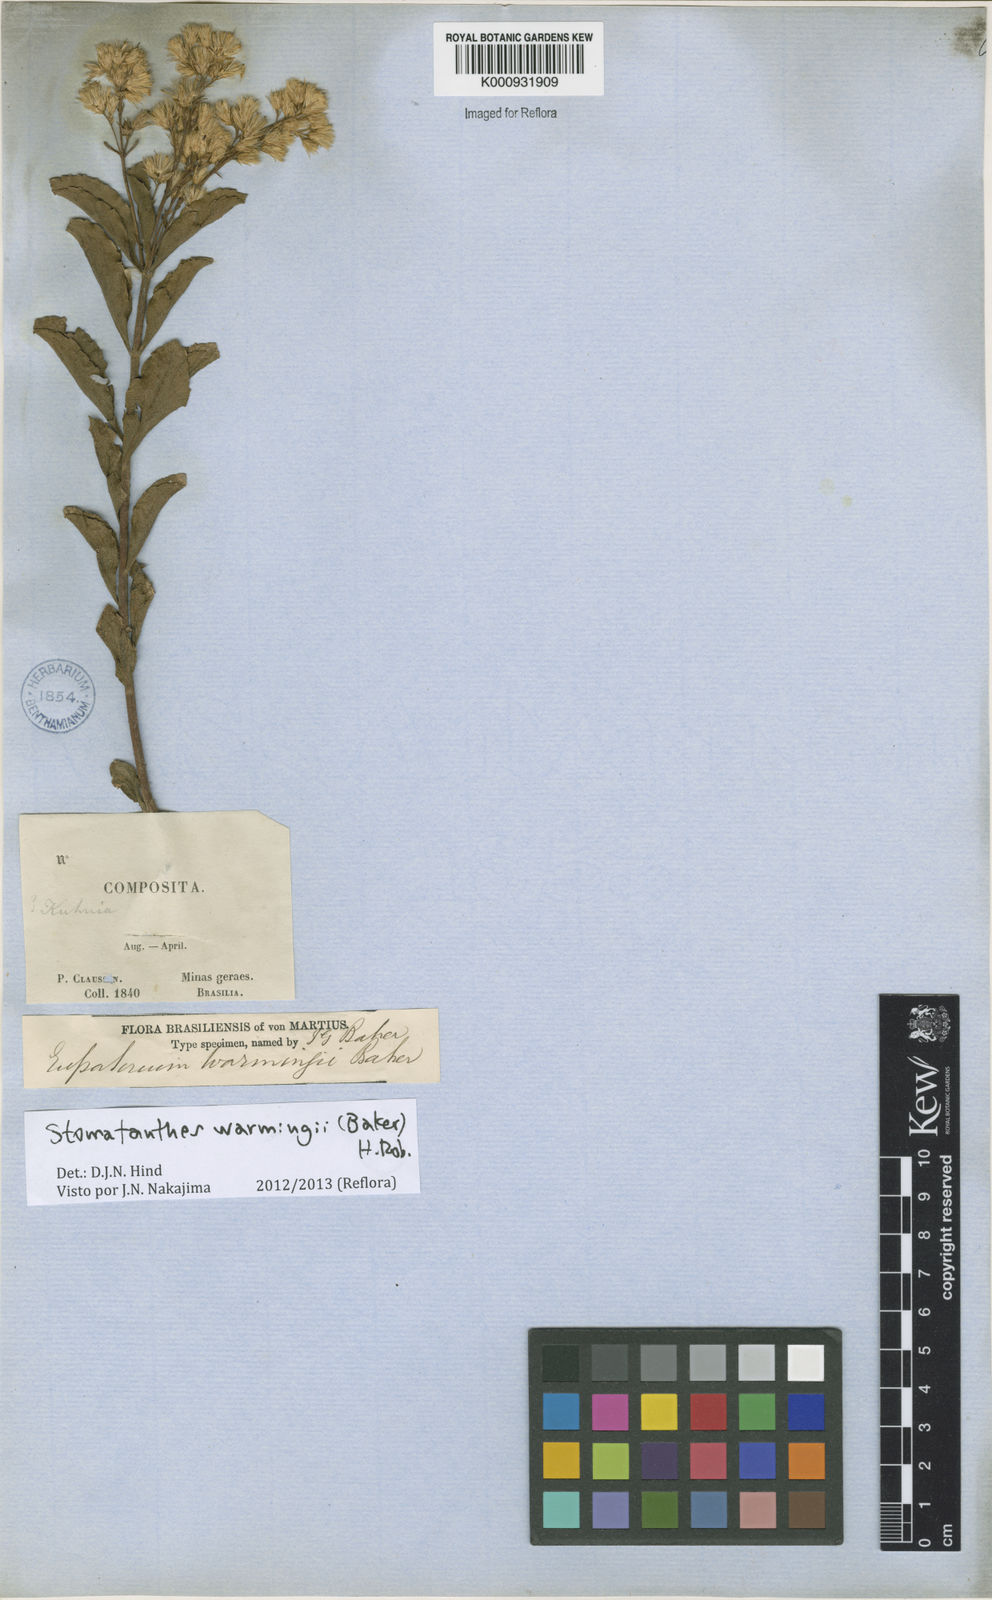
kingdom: Plantae
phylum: Tracheophyta
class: Magnoliopsida
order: Asterales
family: Asteraceae
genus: Stomatanthes
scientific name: Stomatanthes warmingii
